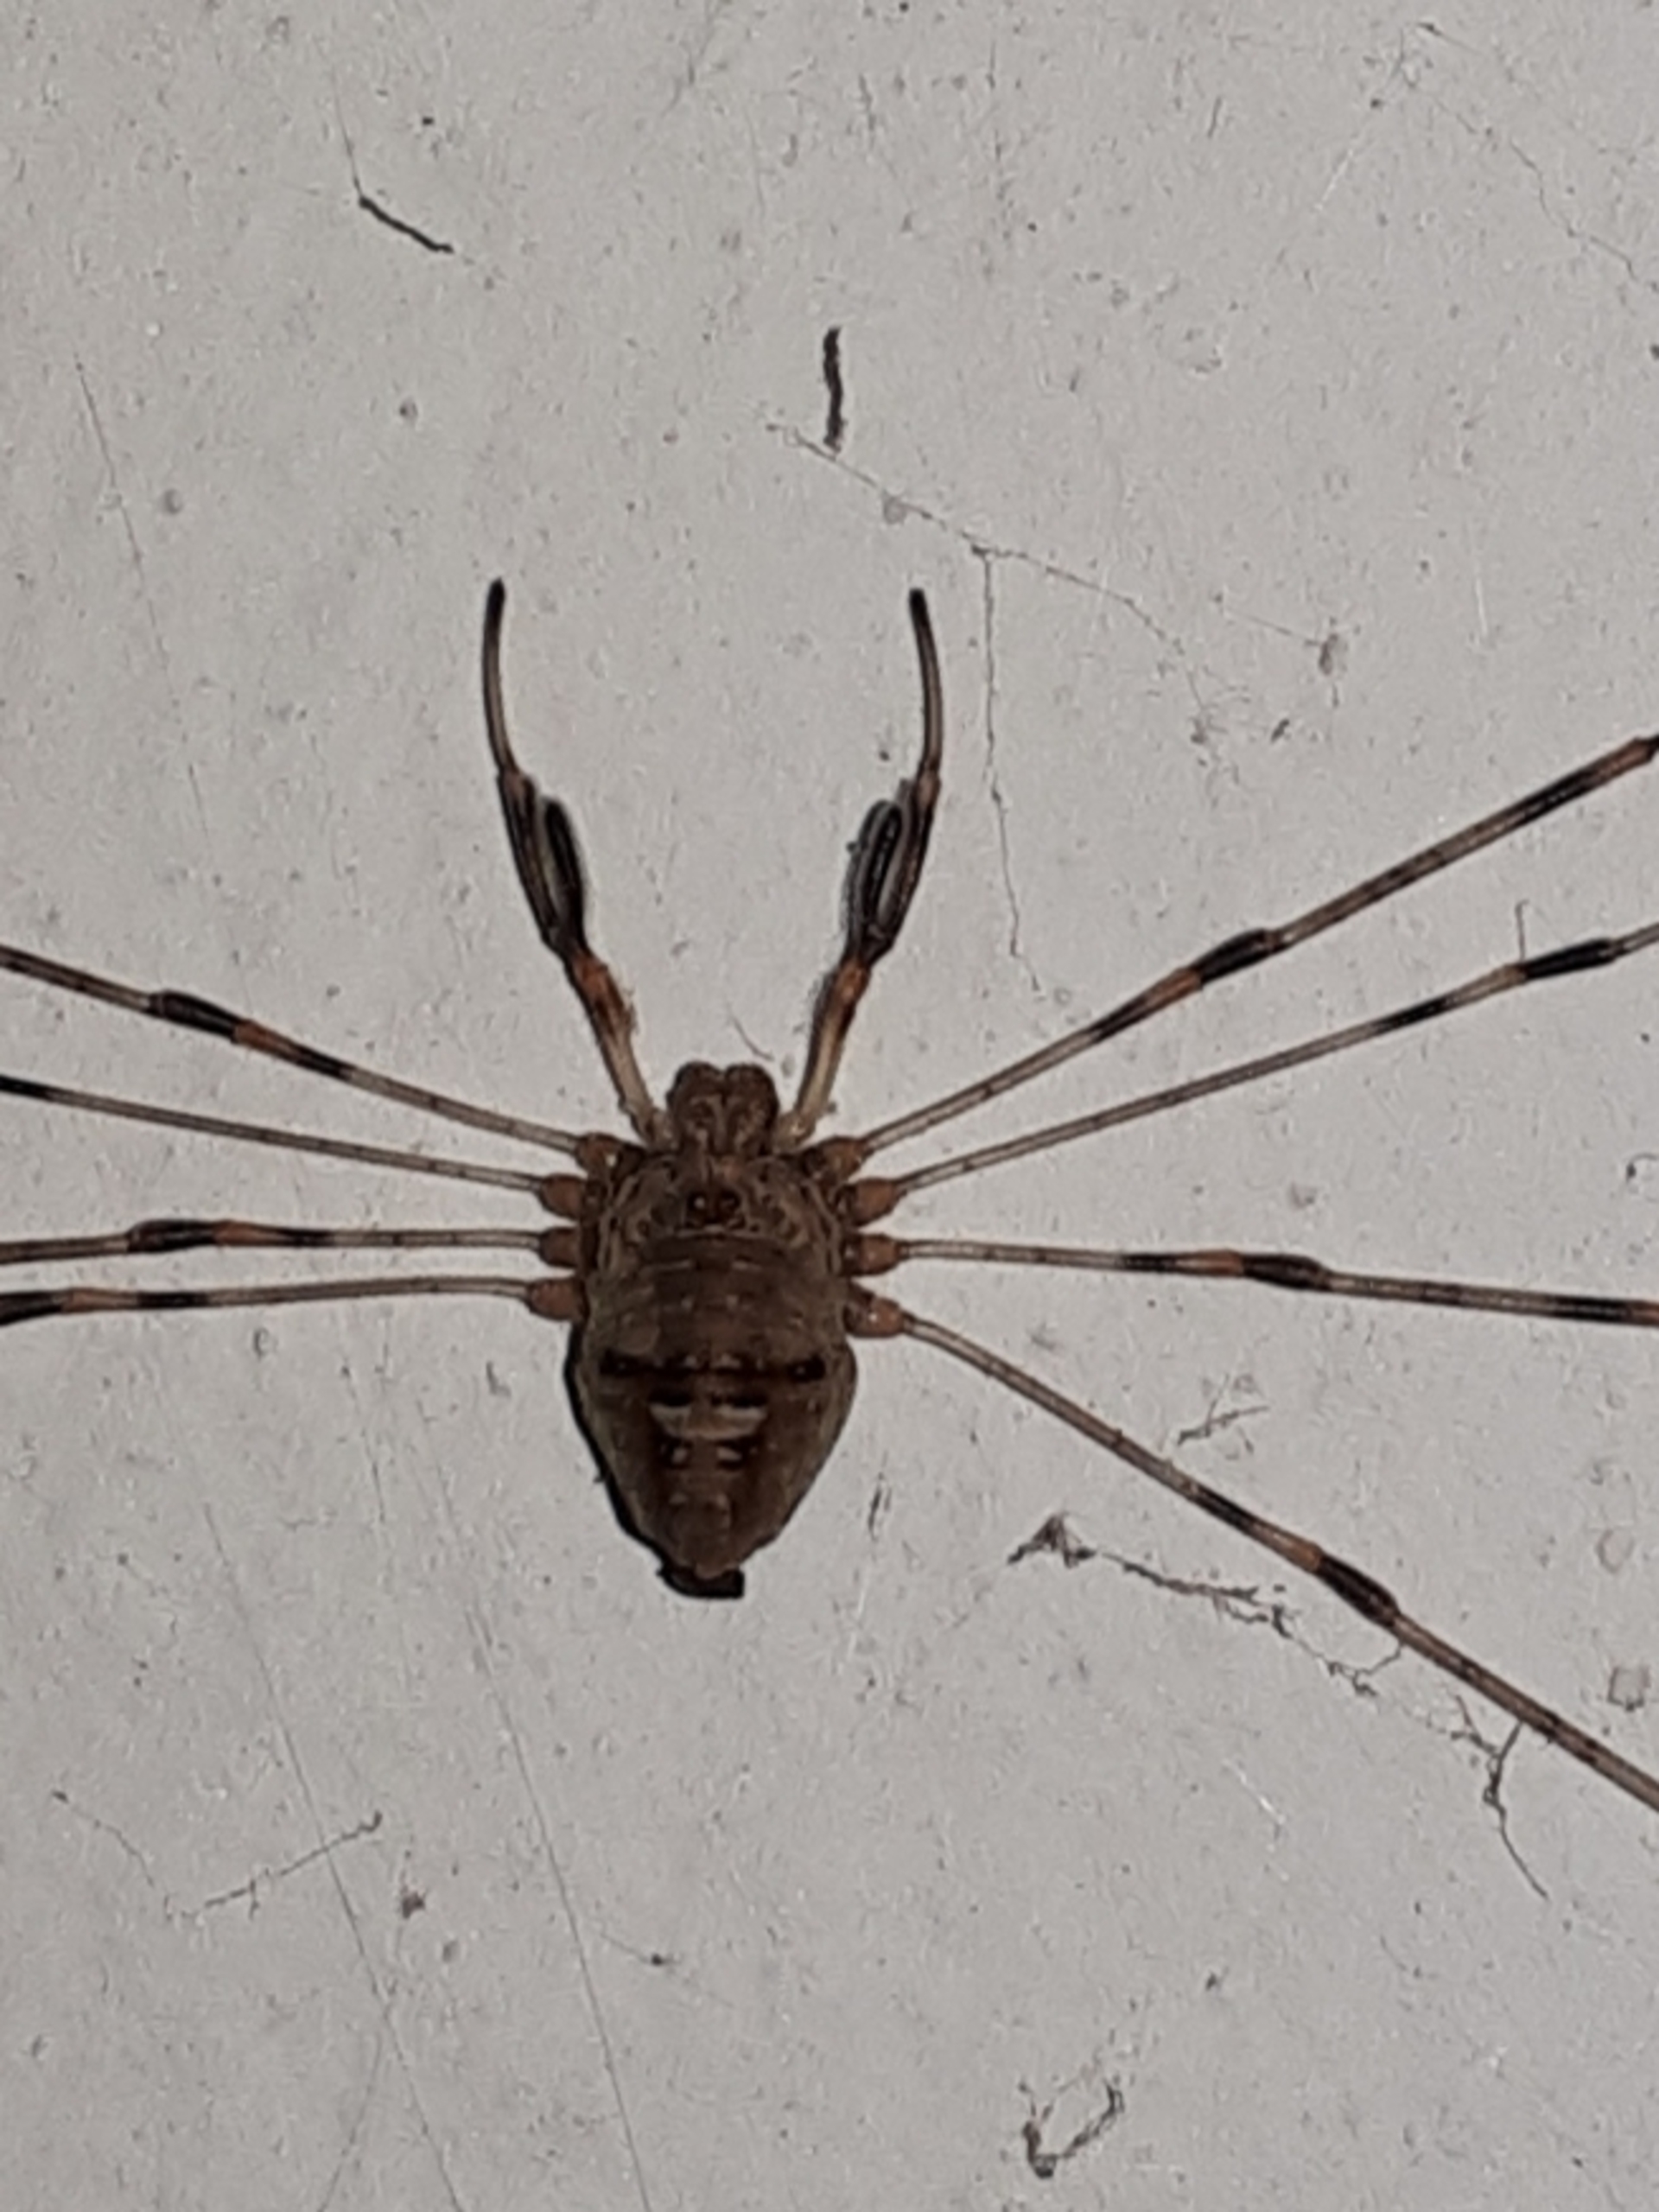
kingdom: Animalia
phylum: Arthropoda
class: Arachnida
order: Opiliones
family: Phalangiidae
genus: Dicranopalpus
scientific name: Dicranopalpus ramosus
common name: Gaffelmejer
